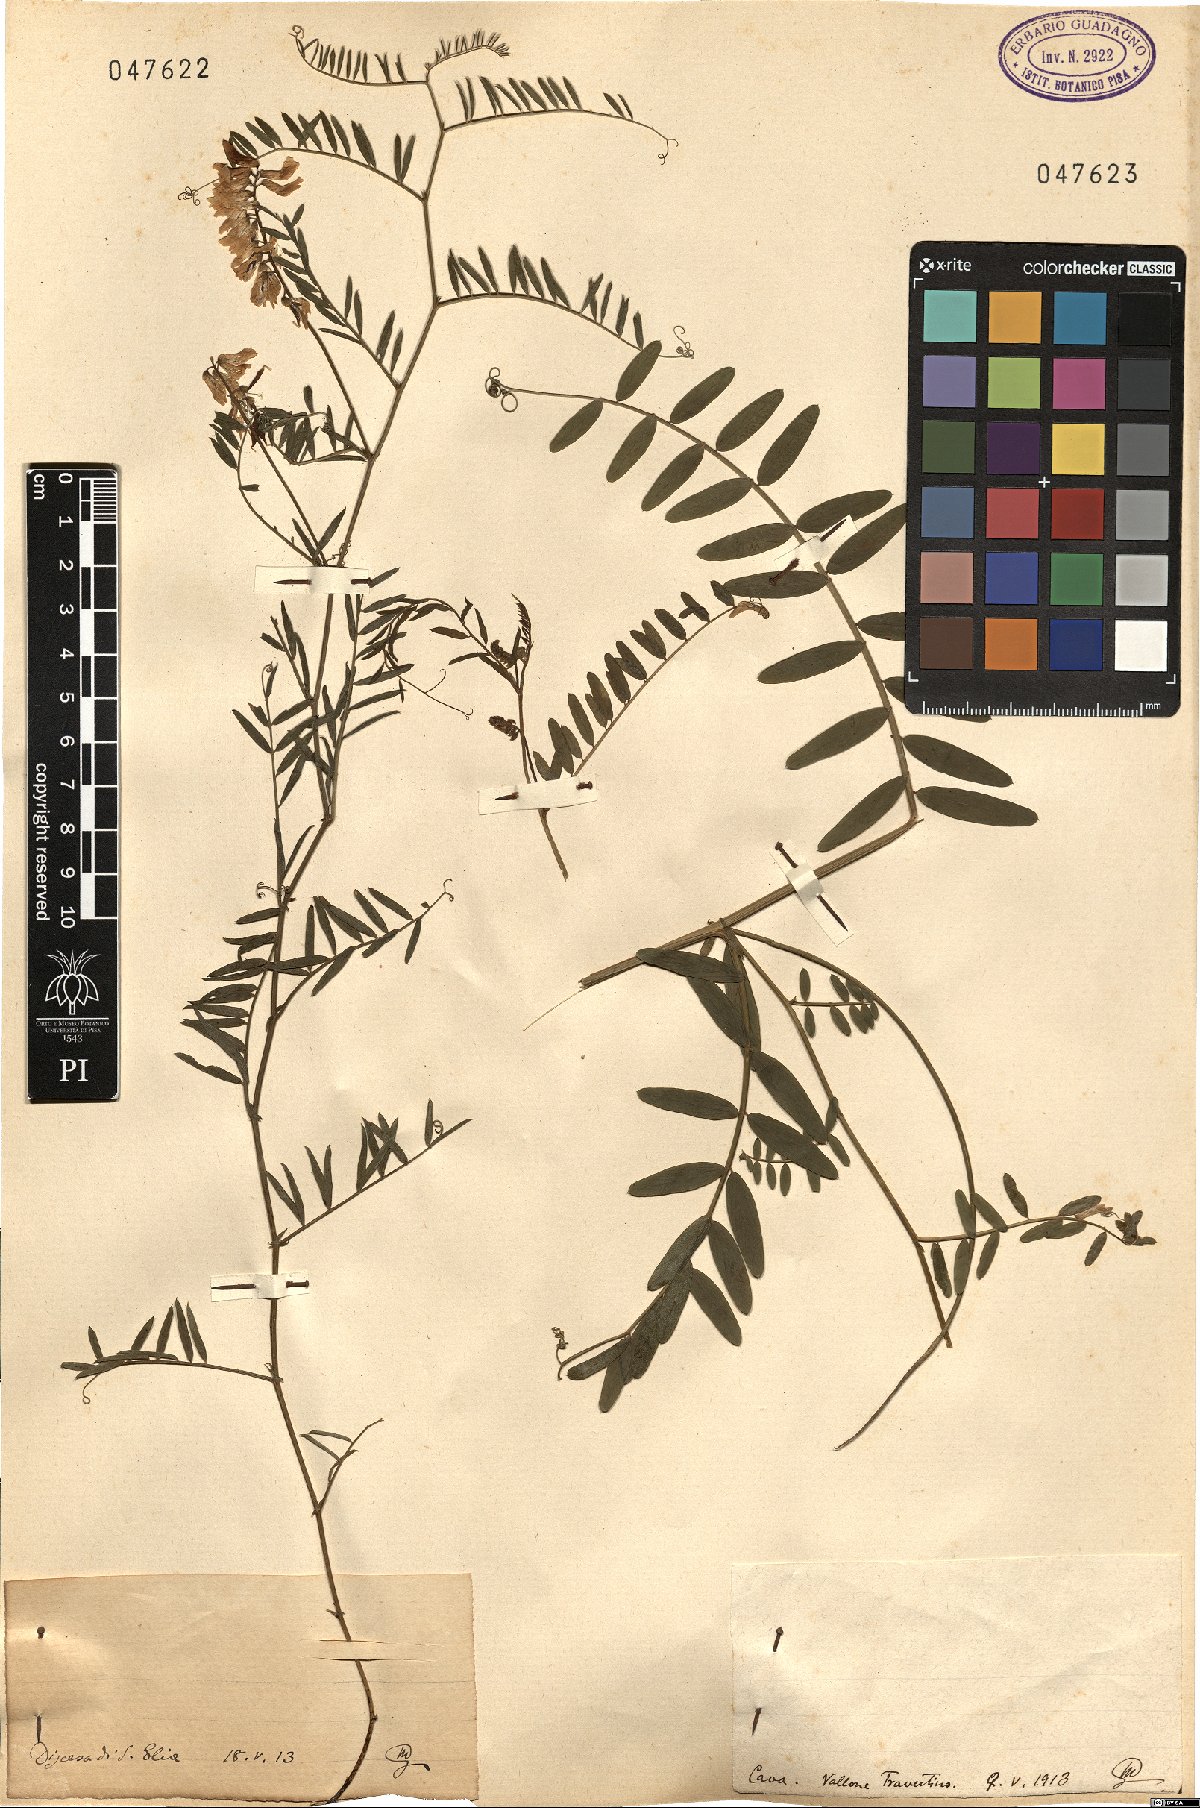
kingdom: Plantae
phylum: Tracheophyta
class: Magnoliopsida
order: Fabales
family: Fabaceae
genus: Vicia
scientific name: Vicia
